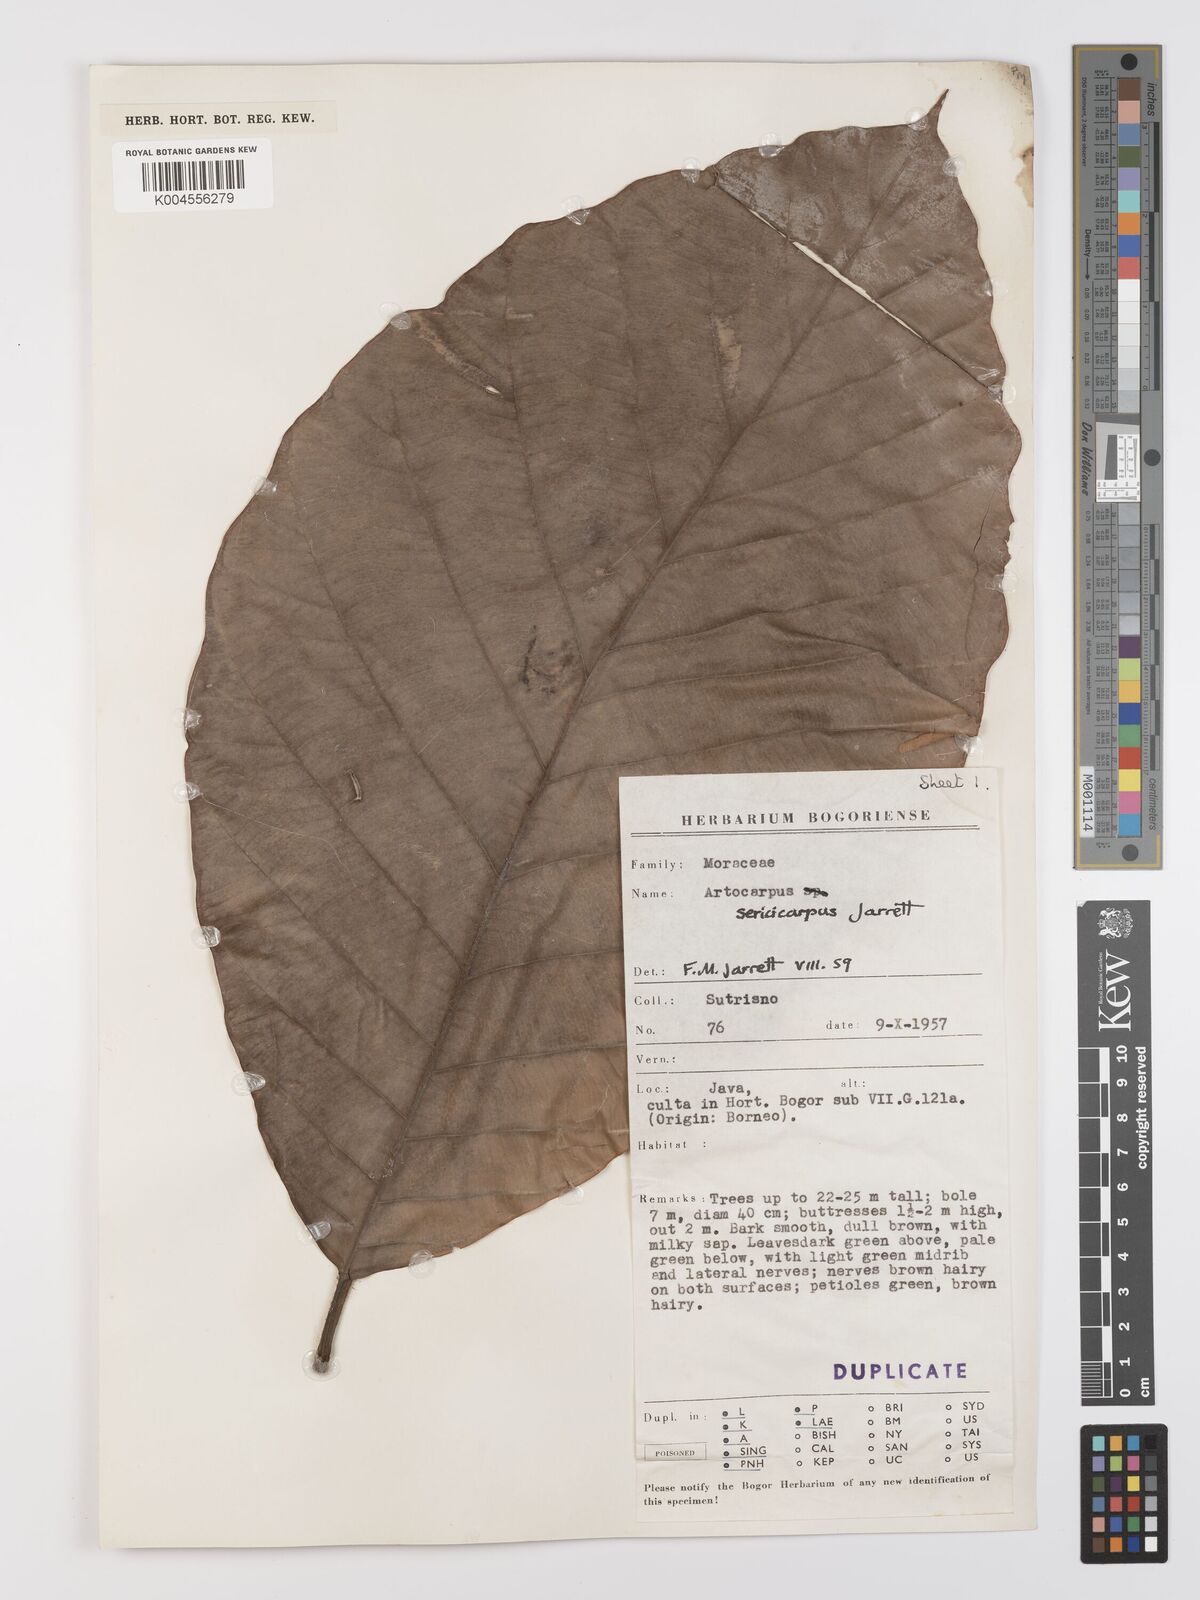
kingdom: Plantae
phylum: Tracheophyta
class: Magnoliopsida
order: Rosales
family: Moraceae
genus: Artocarpus
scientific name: Artocarpus sericicarpus
